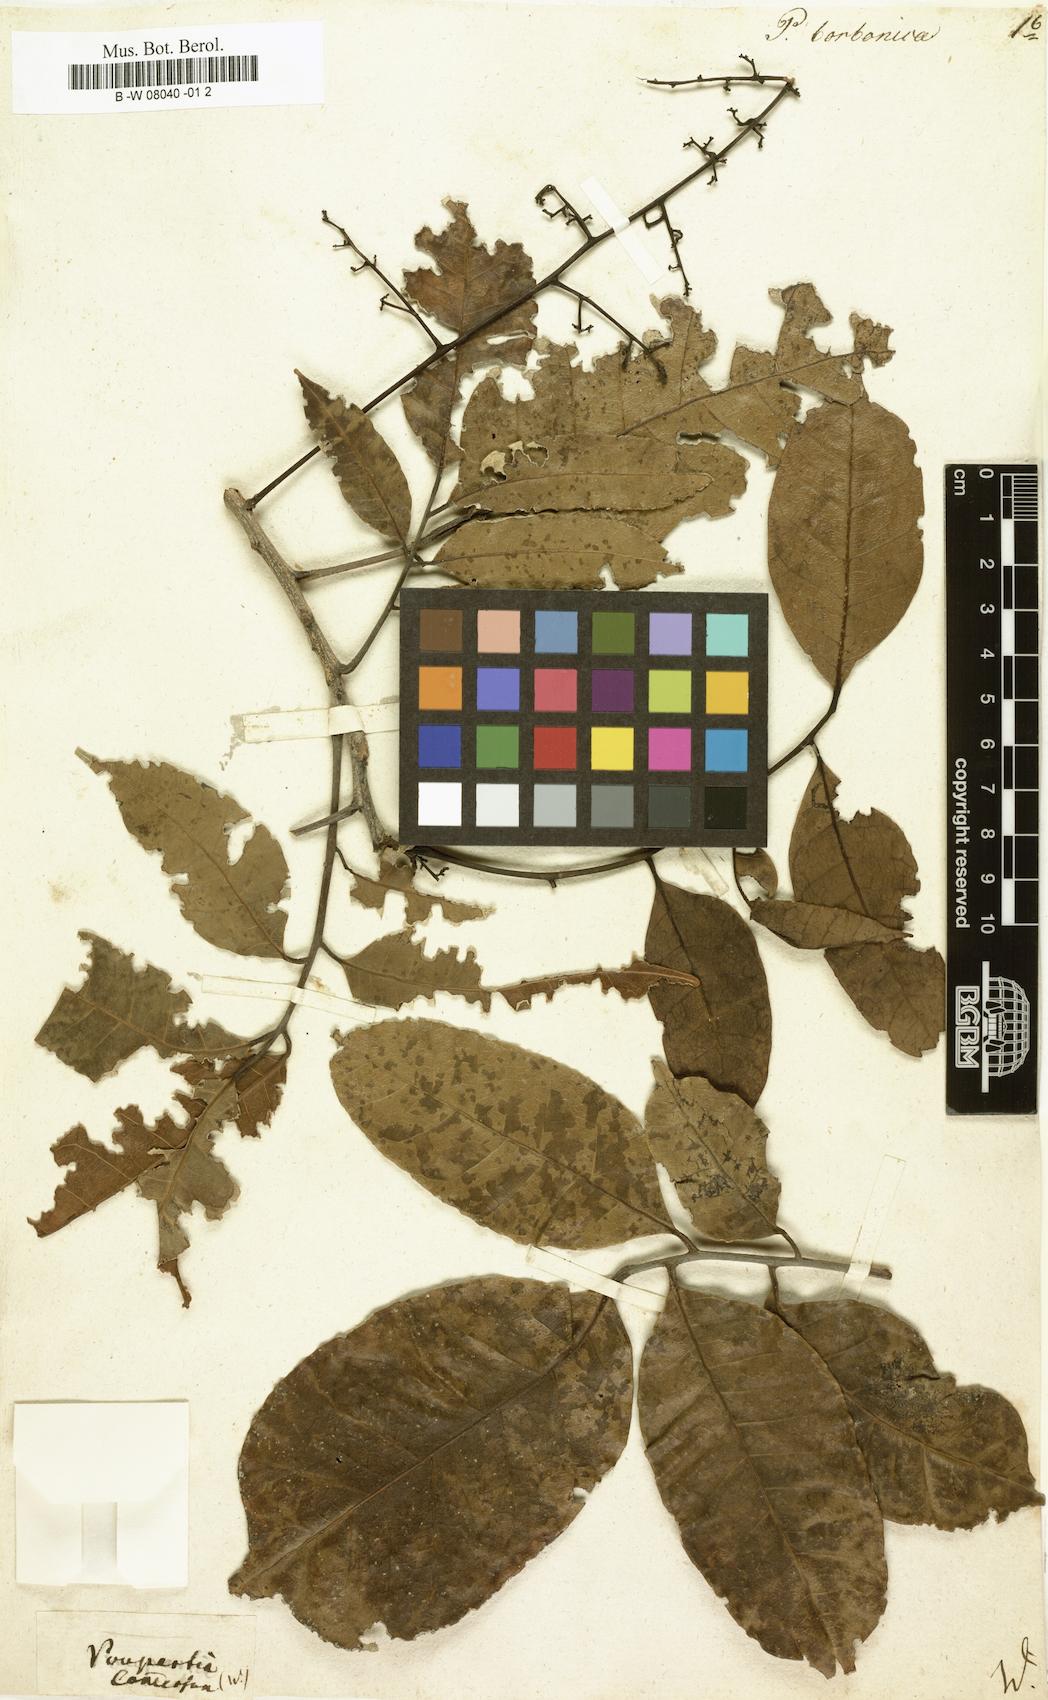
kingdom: Plantae
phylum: Tracheophyta
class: Magnoliopsida
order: Sapindales
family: Anacardiaceae
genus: Poupartia
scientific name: Poupartia borbonica
